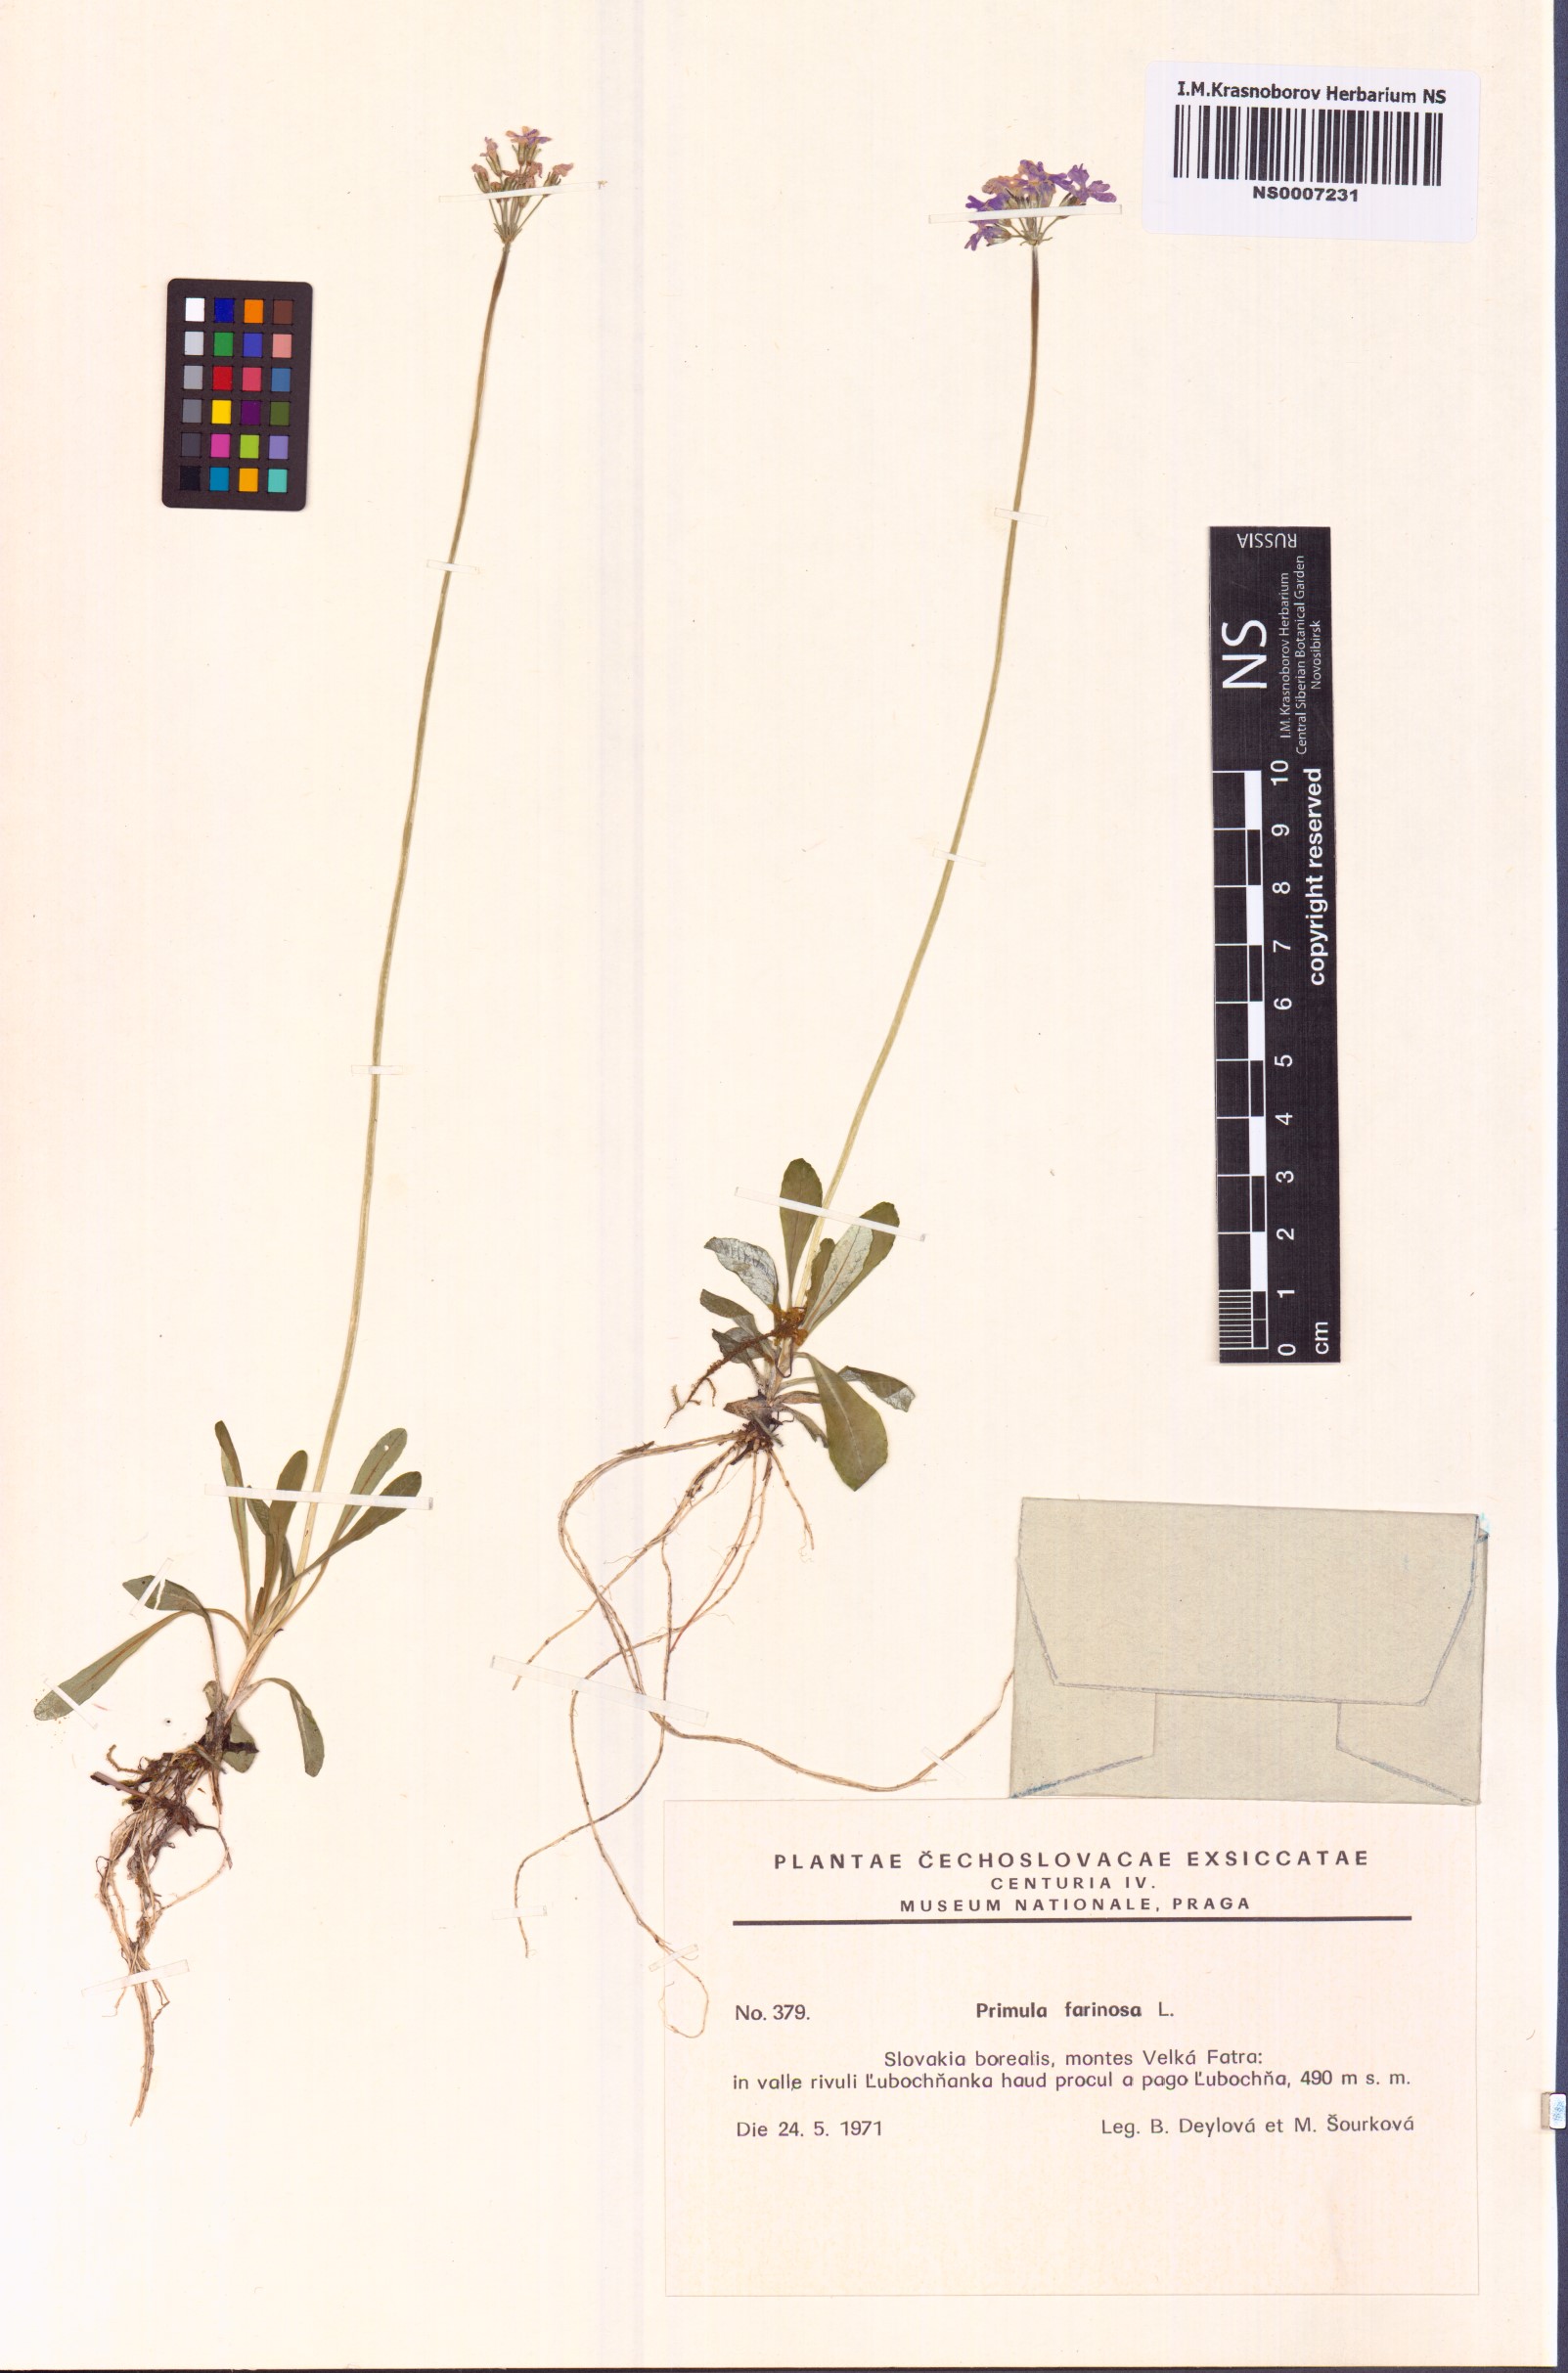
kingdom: Plantae
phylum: Tracheophyta
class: Magnoliopsida
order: Ericales
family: Primulaceae
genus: Primula
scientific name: Primula farinosa
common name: Bird's-eye primrose
